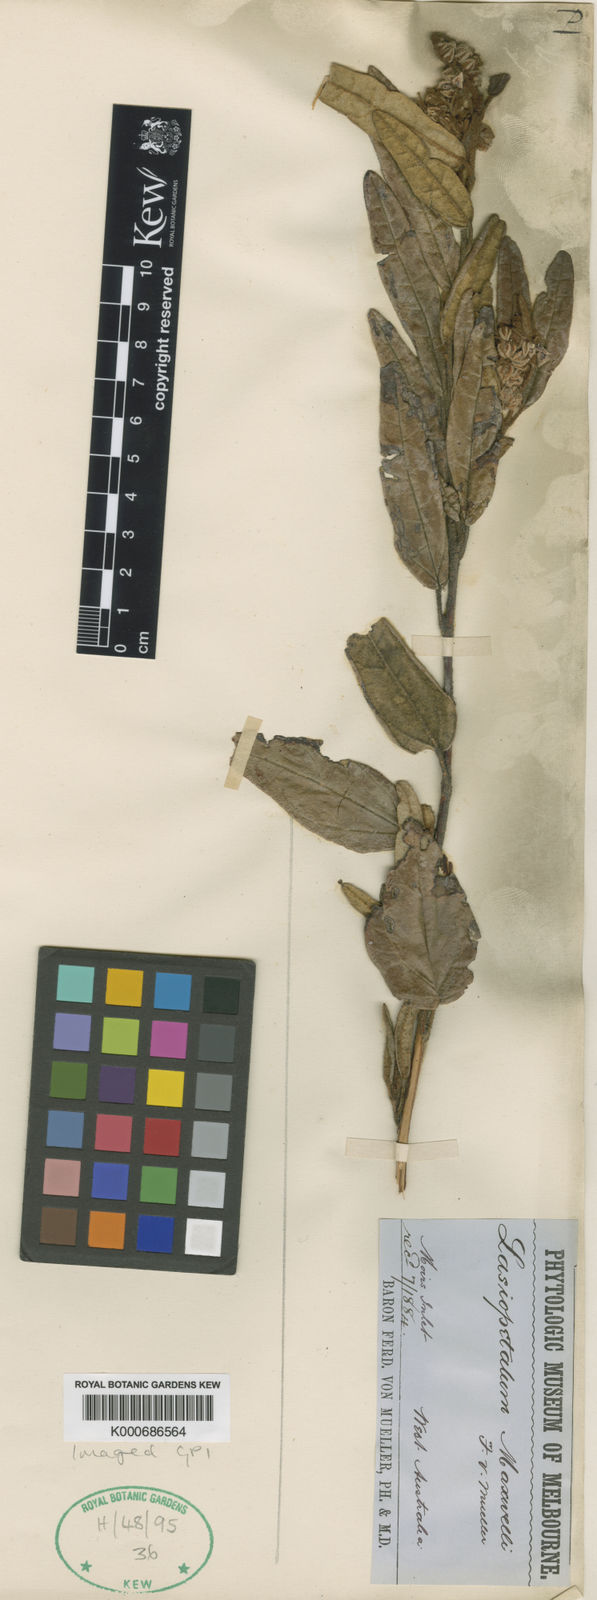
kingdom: Plantae
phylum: Tracheophyta
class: Magnoliopsida
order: Malvales
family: Malvaceae
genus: Lasiopetalum
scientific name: Lasiopetalum maxwellii
